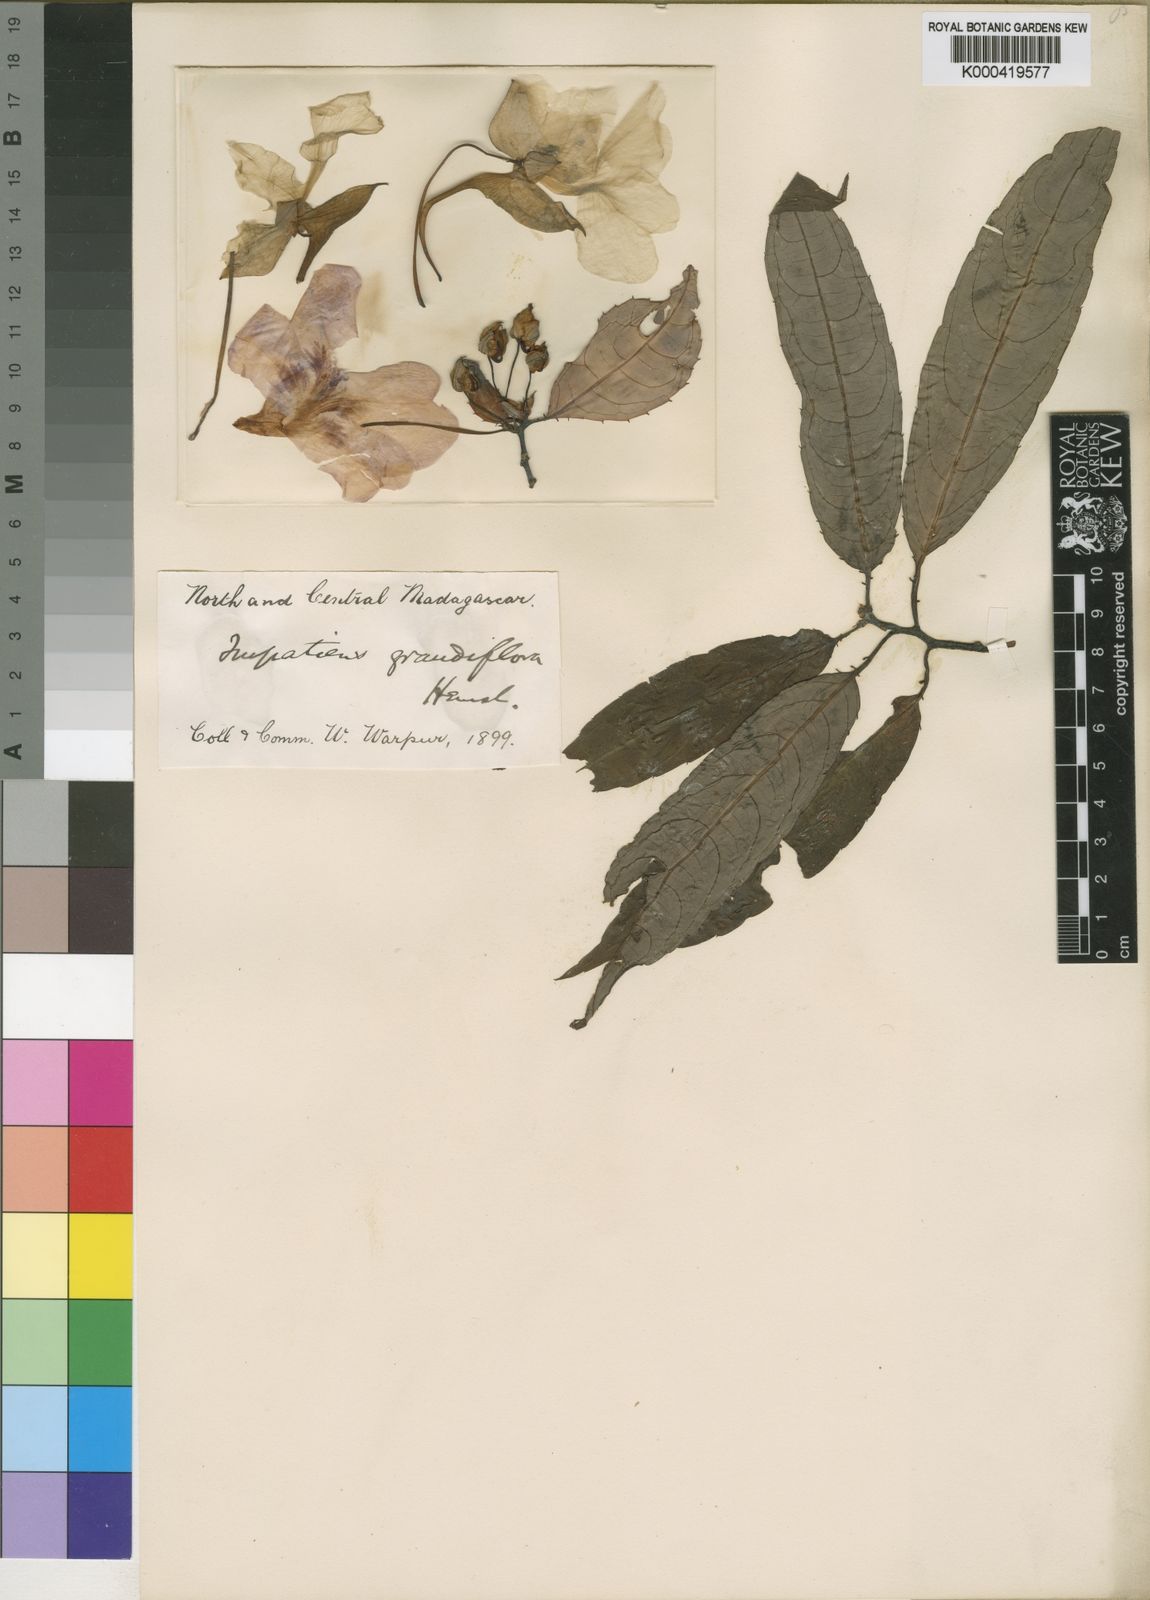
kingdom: Plantae
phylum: Tracheophyta
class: Magnoliopsida
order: Ericales
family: Balsaminaceae
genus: Impatiens
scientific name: Impatiens humblotiana
